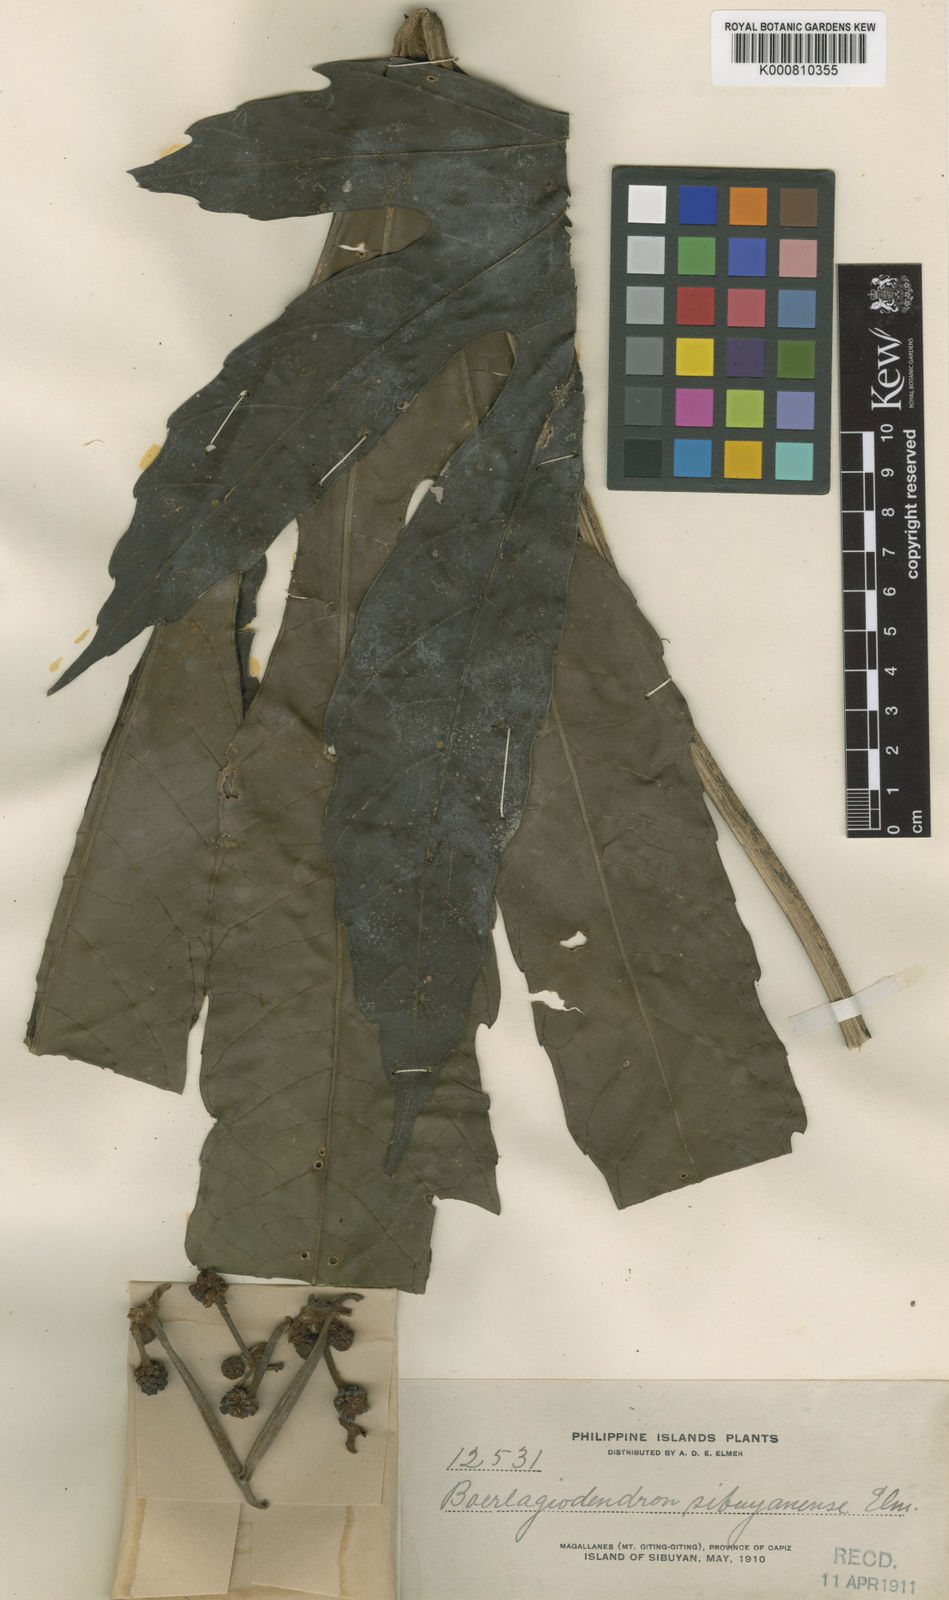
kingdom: Plantae
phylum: Tracheophyta
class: Magnoliopsida
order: Apiales
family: Araliaceae
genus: Osmoxylon
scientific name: Osmoxylon pulcherrimum
